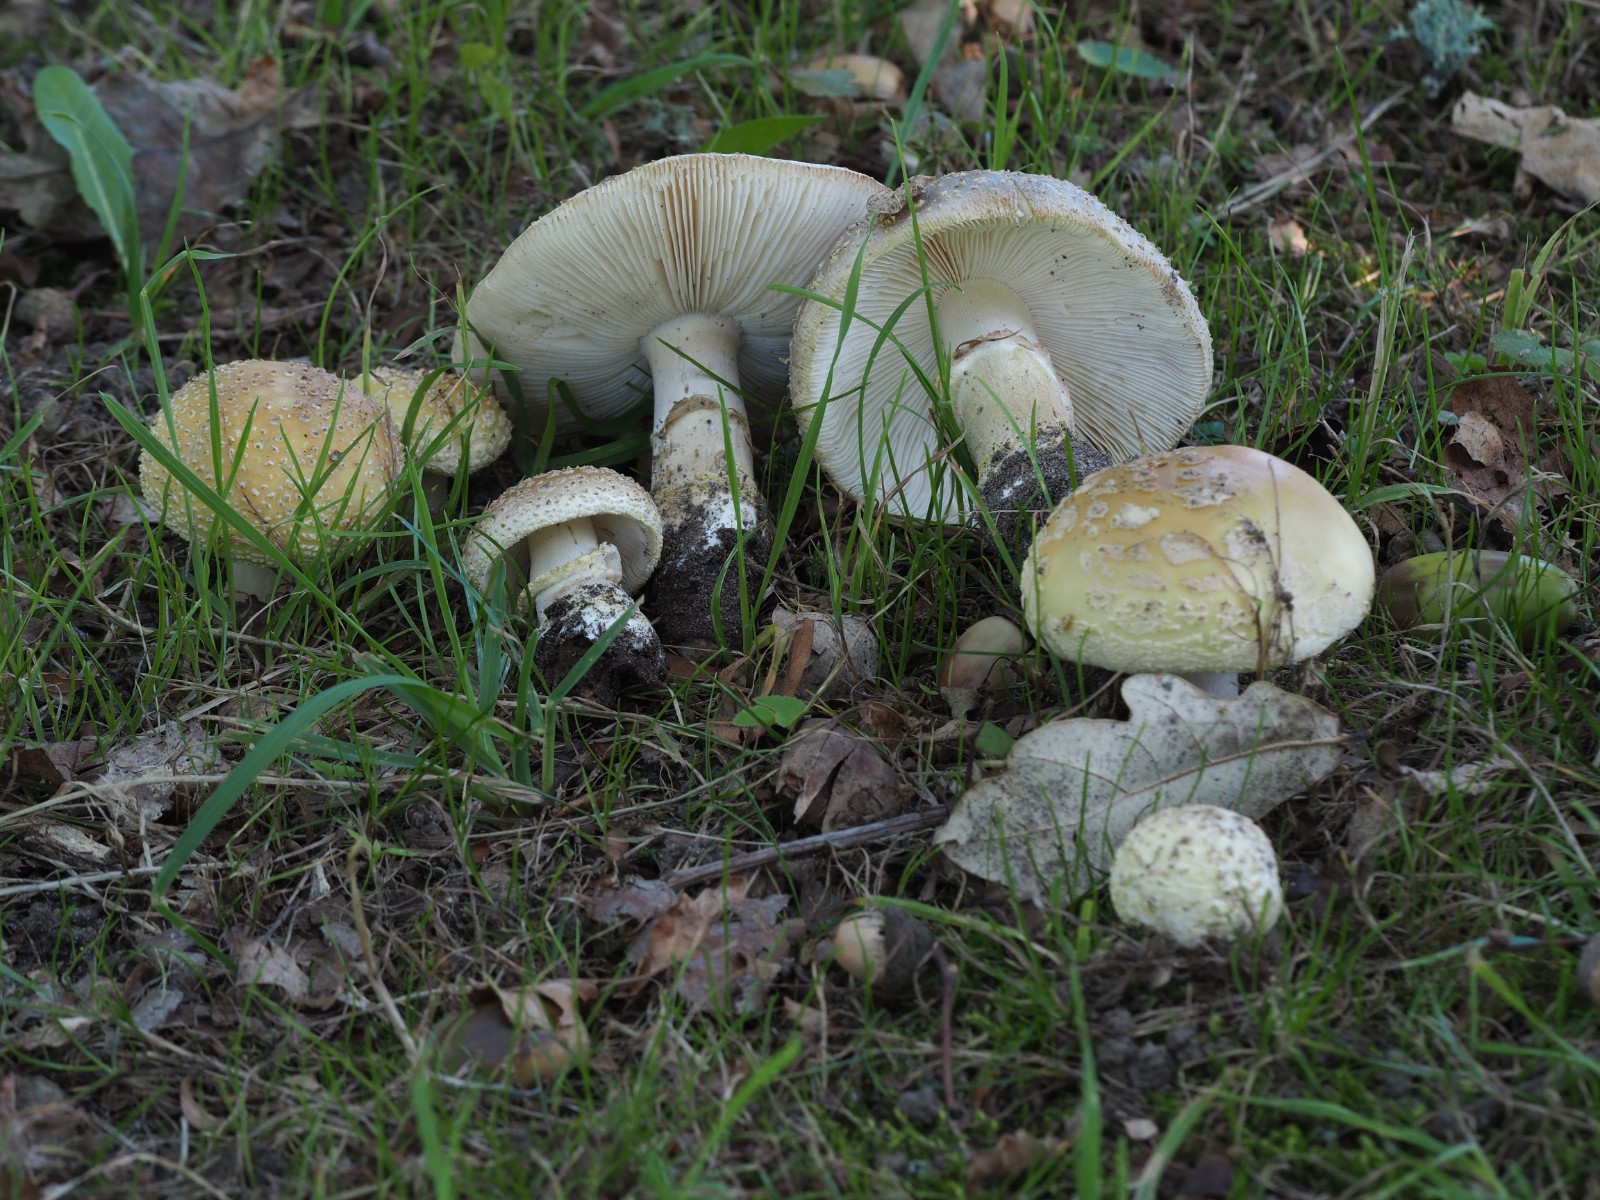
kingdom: Fungi
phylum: Basidiomycota
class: Agaricomycetes
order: Agaricales
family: Amanitaceae
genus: Amanita
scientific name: Amanita franchetii
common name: gulrandet fluesvamp
